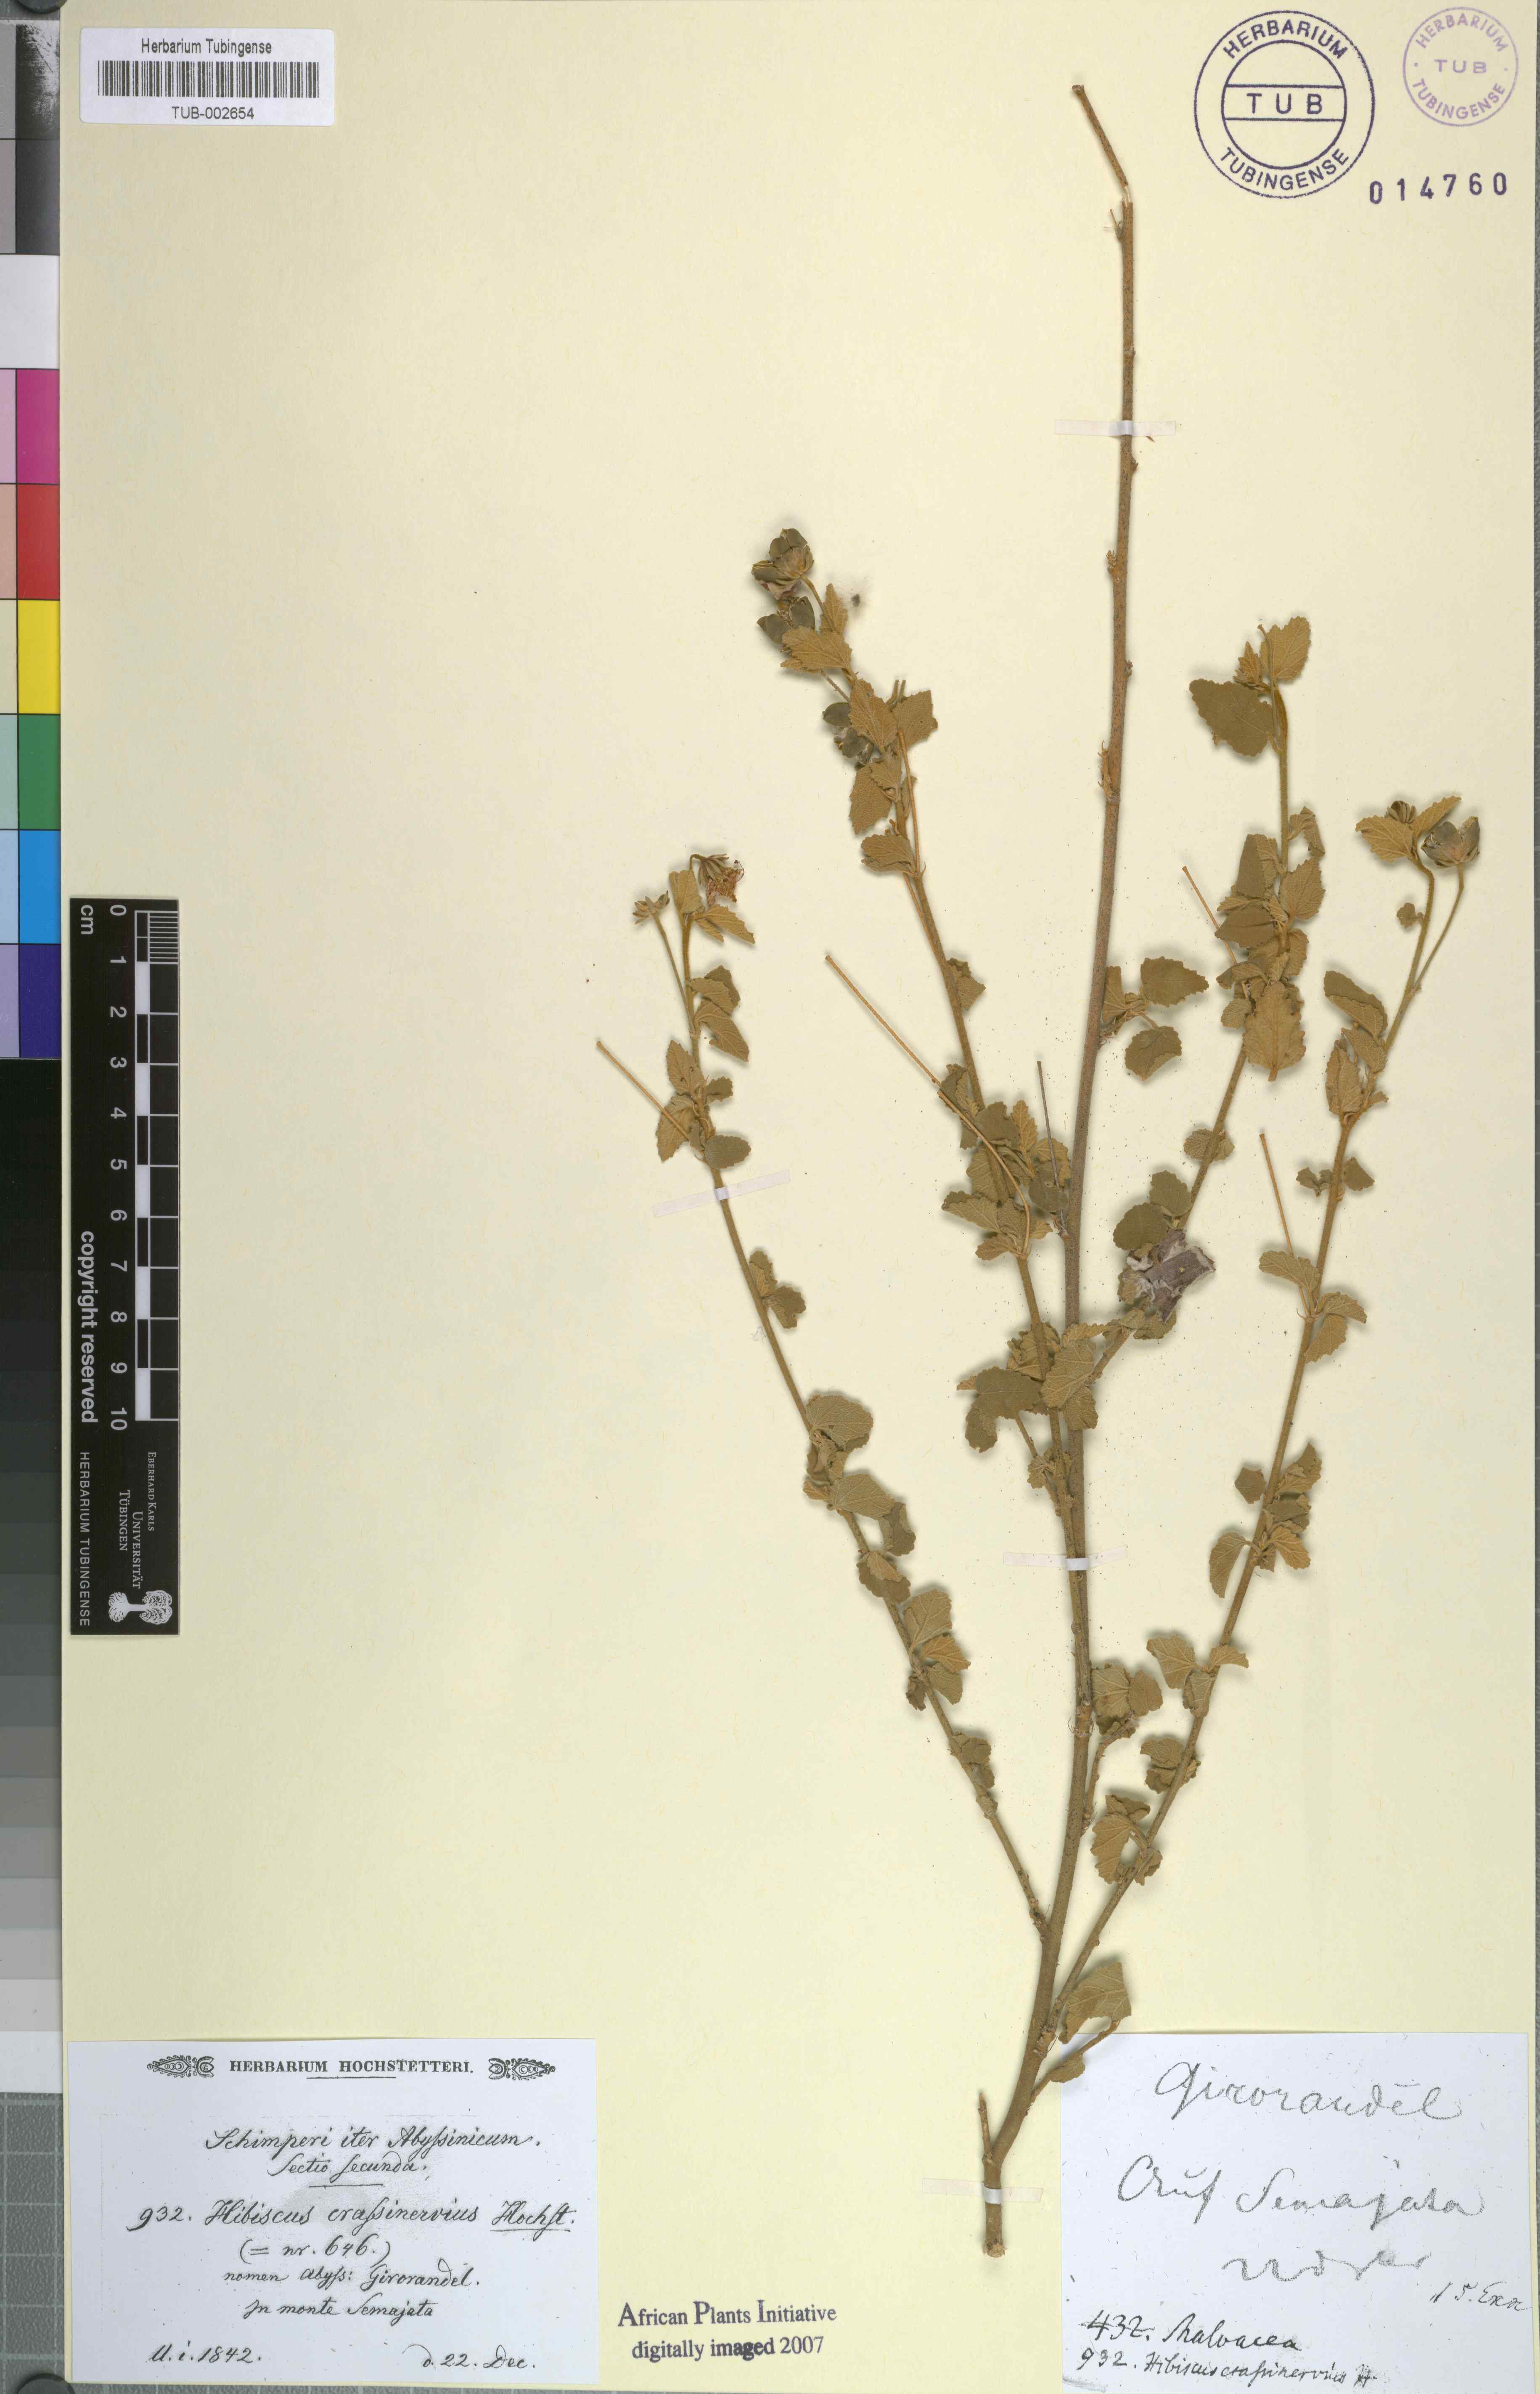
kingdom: Plantae
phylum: Tracheophyta
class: Magnoliopsida
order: Malvales
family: Malvaceae
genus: Hibiscus
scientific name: Hibiscus crassinervius
